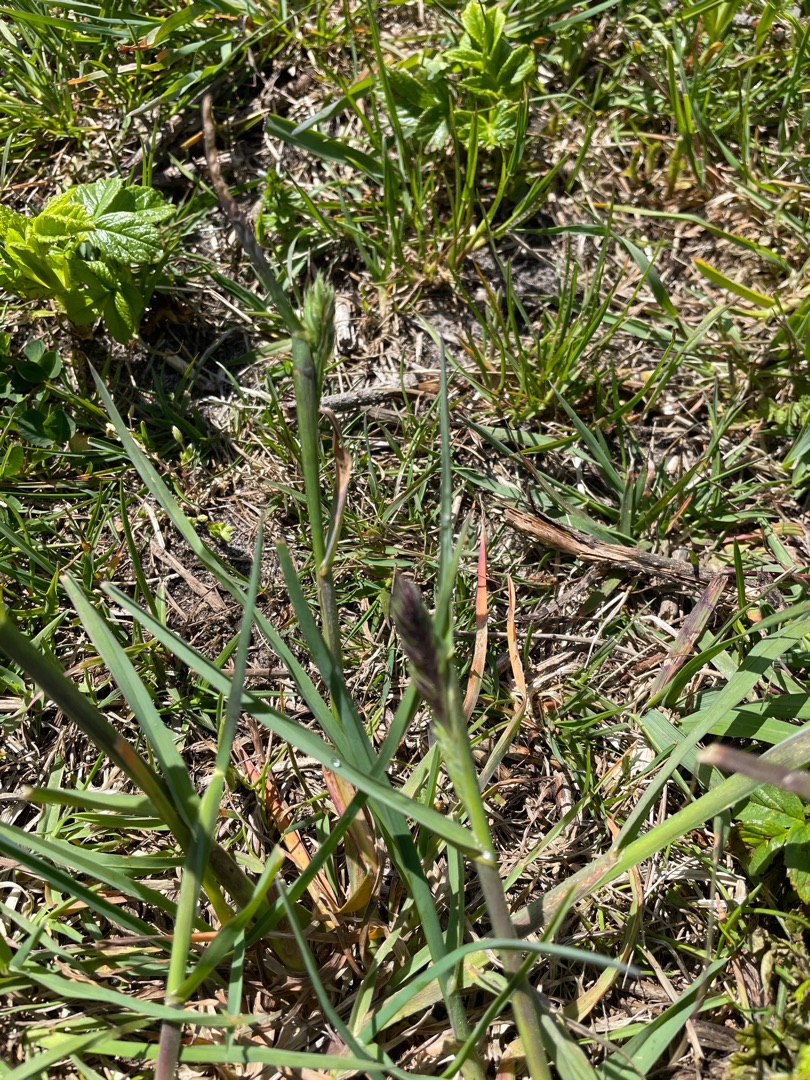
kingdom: Plantae
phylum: Tracheophyta
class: Liliopsida
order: Poales
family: Poaceae
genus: Dactylis
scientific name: Dactylis glomerata
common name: Almindelig hundegræs
